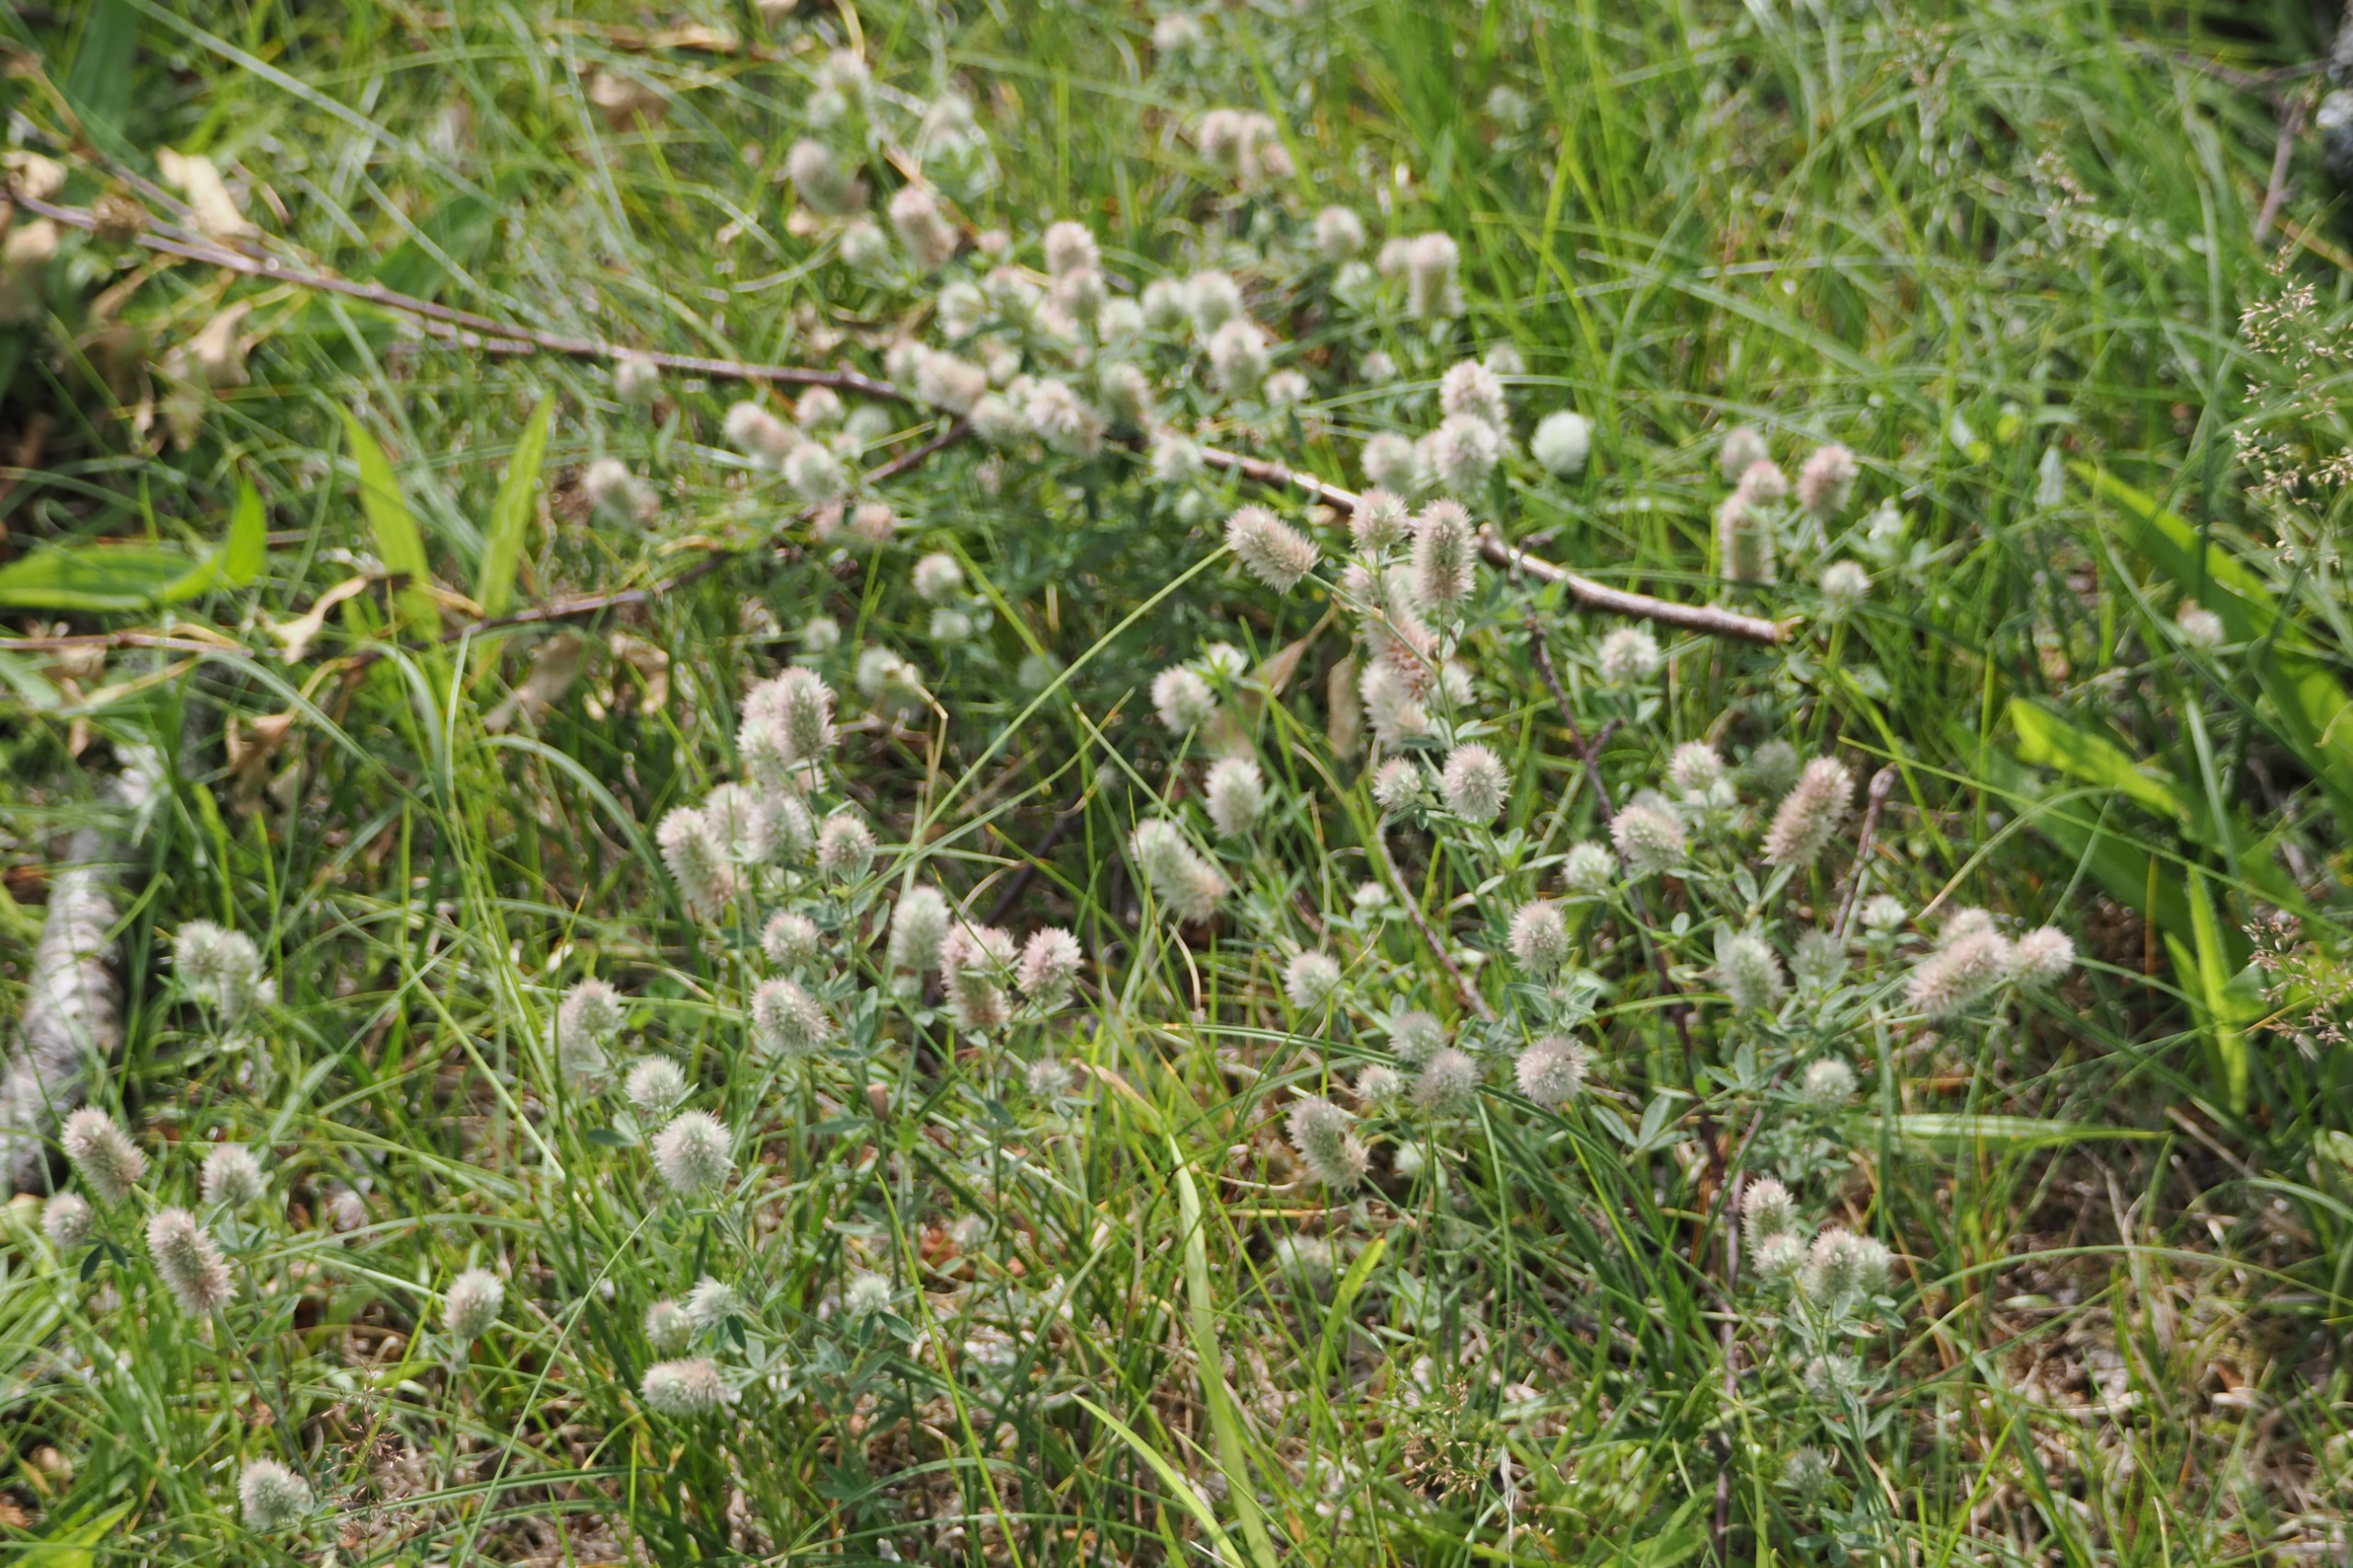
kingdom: Plantae
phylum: Tracheophyta
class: Magnoliopsida
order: Fabales
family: Fabaceae
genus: Trifolium
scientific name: Trifolium arvense
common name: Hare-kløver
